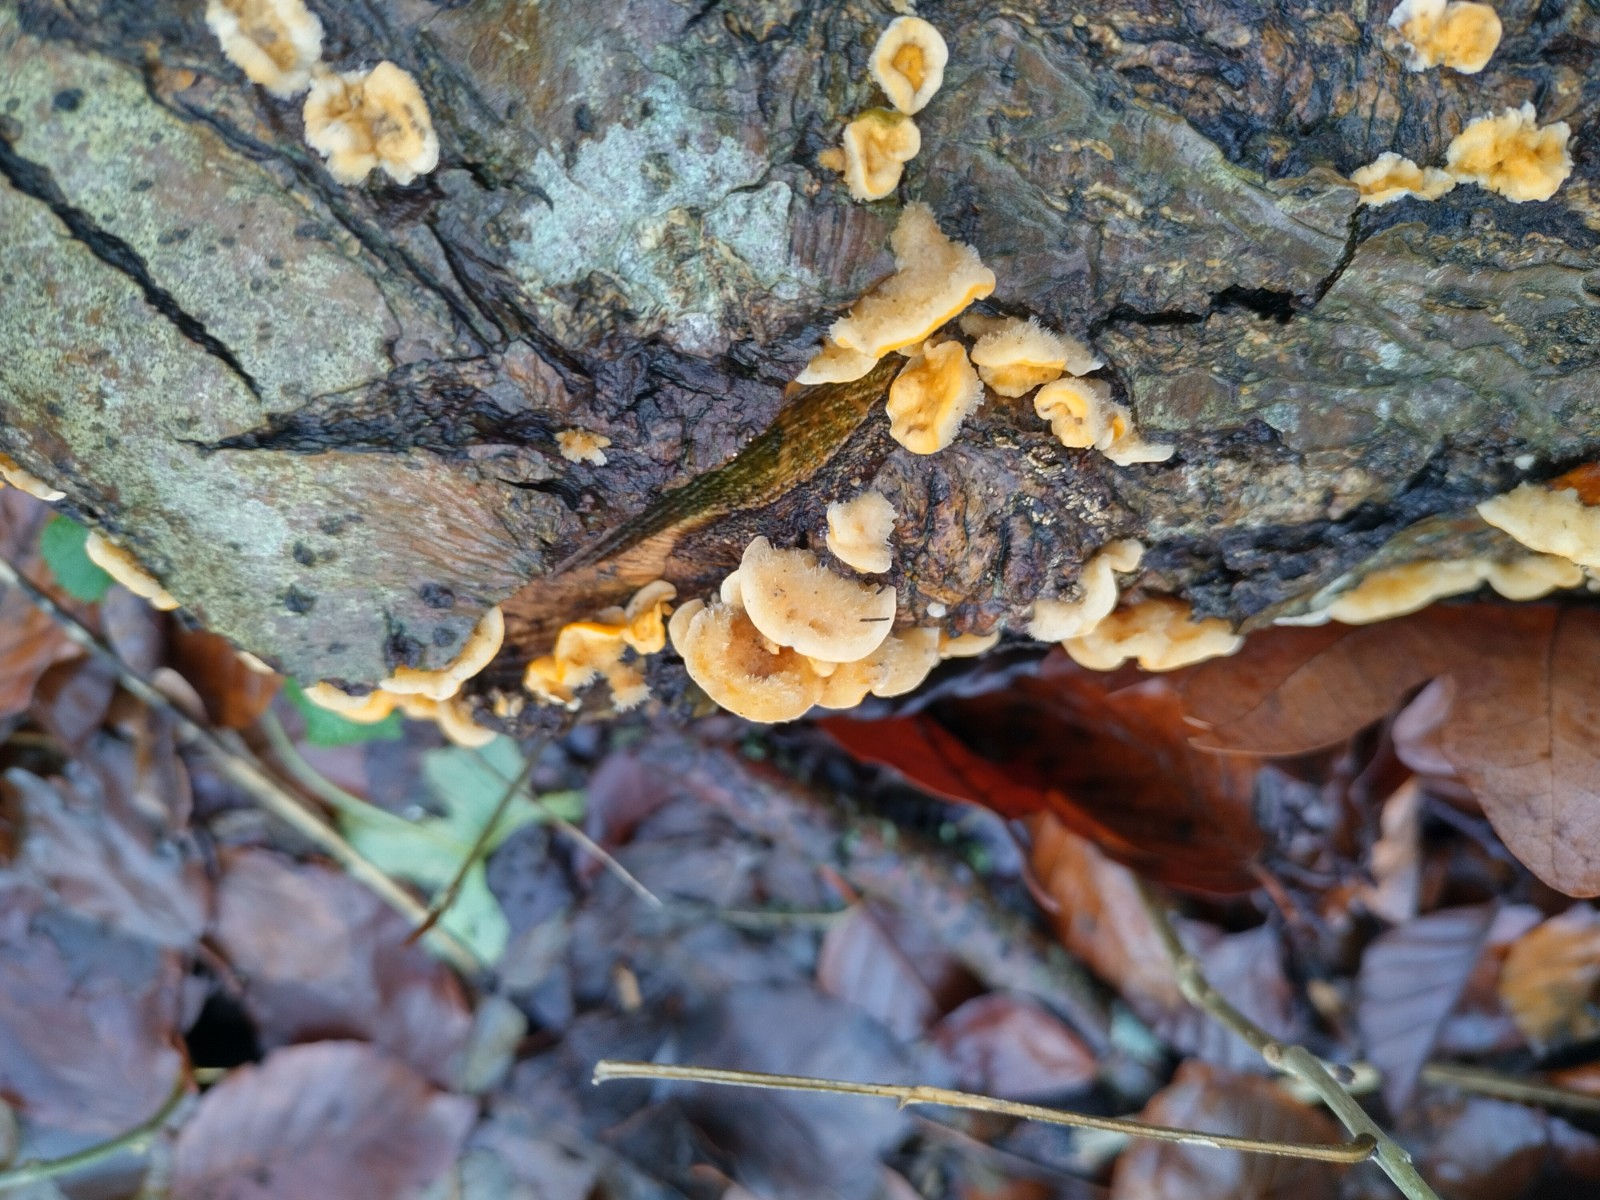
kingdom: Fungi
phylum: Basidiomycota
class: Agaricomycetes
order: Russulales
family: Stereaceae
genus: Stereum
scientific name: Stereum hirsutum
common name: håret lædersvamp
